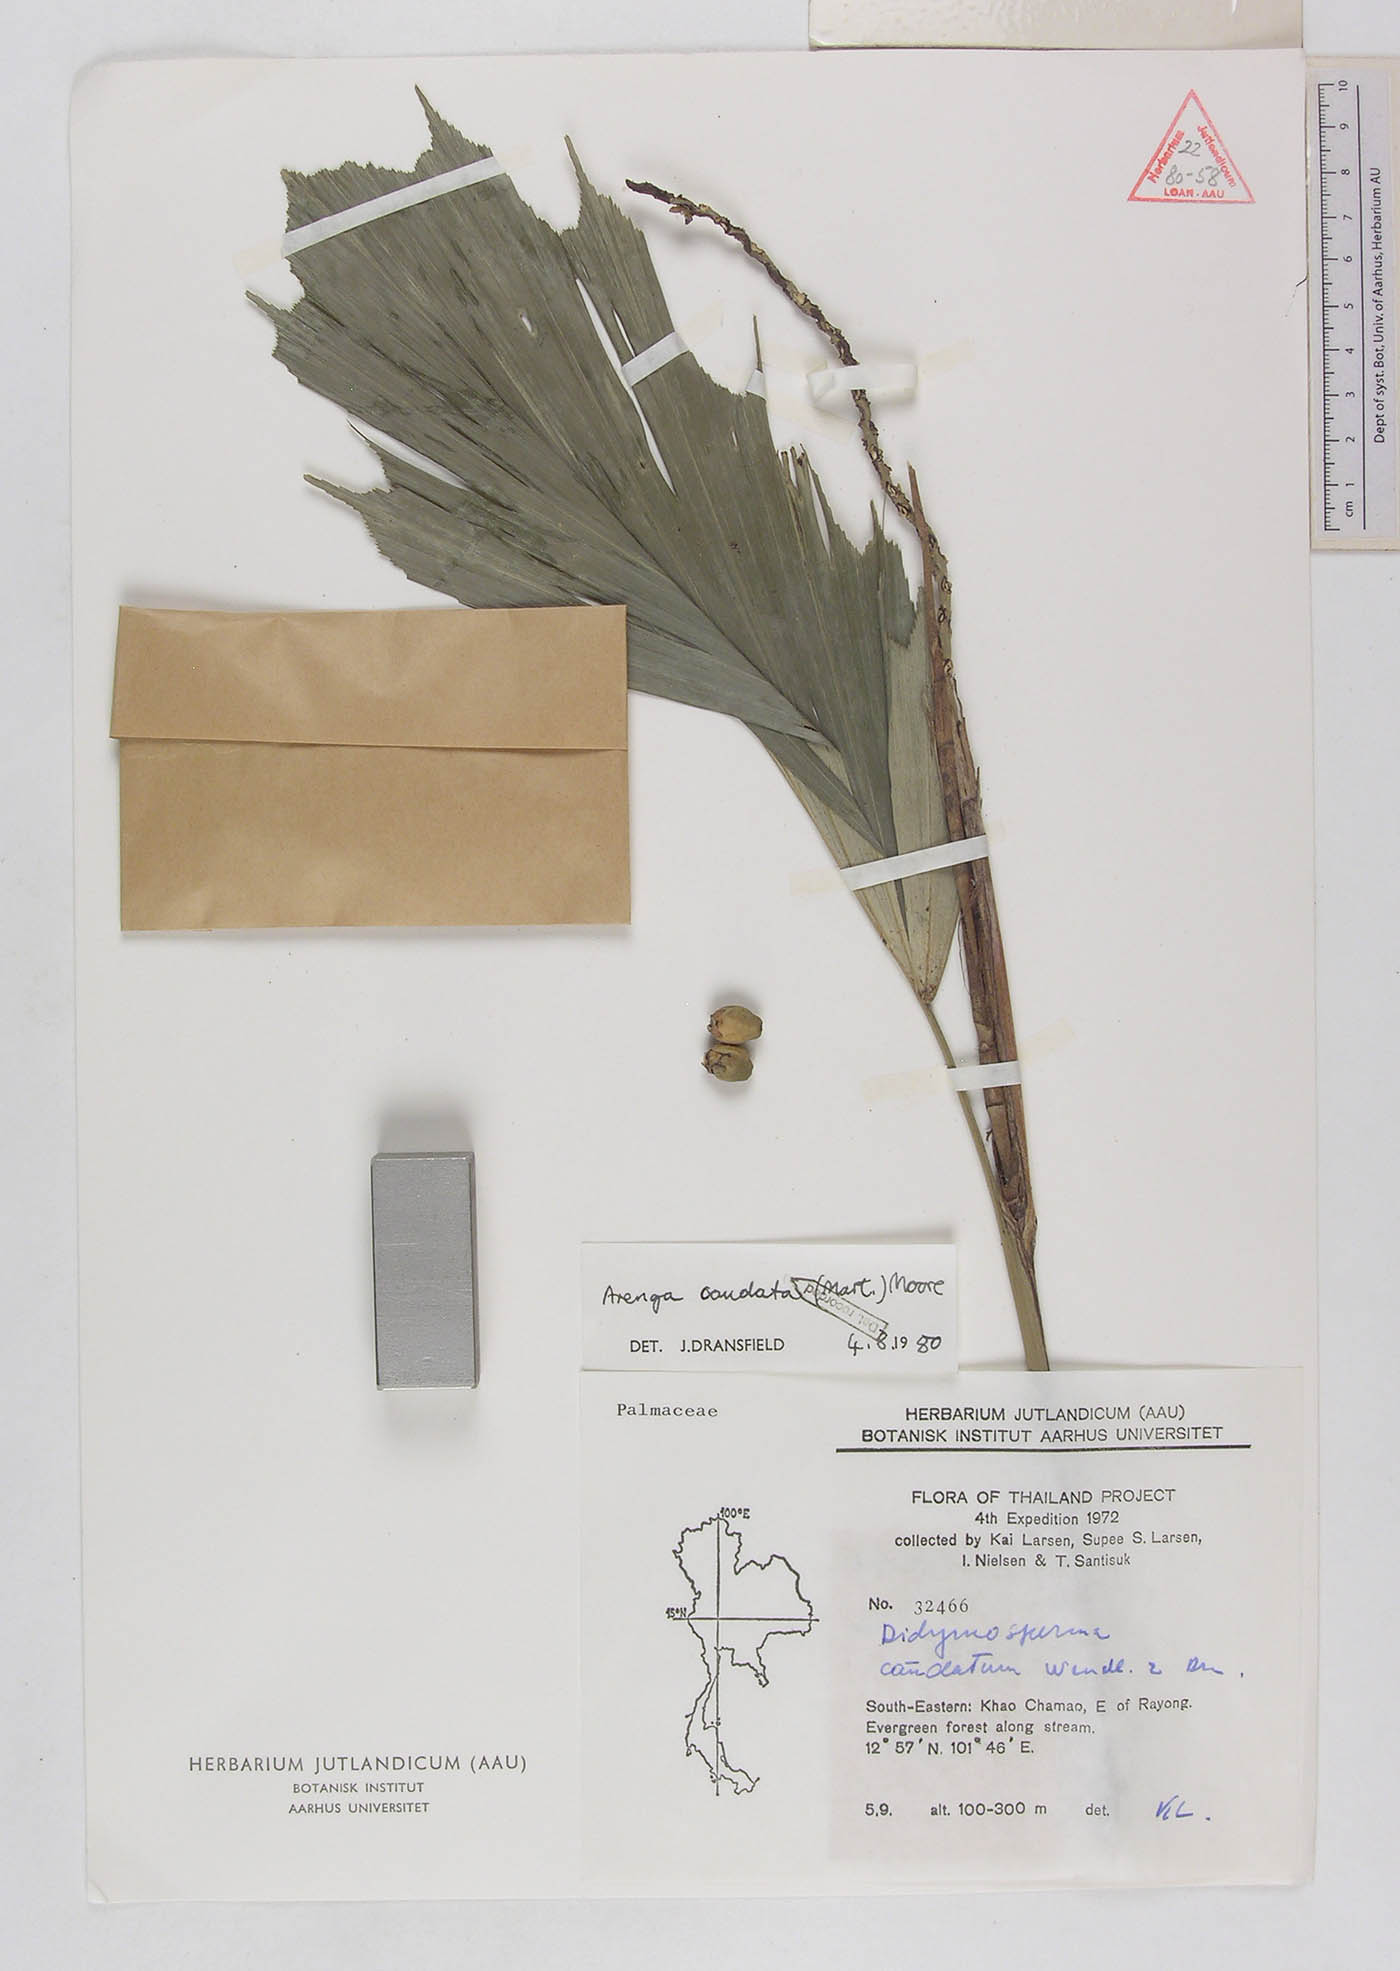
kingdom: Plantae
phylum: Tracheophyta
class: Liliopsida
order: Arecales
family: Arecaceae
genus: Arenga
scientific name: Arenga caudata
